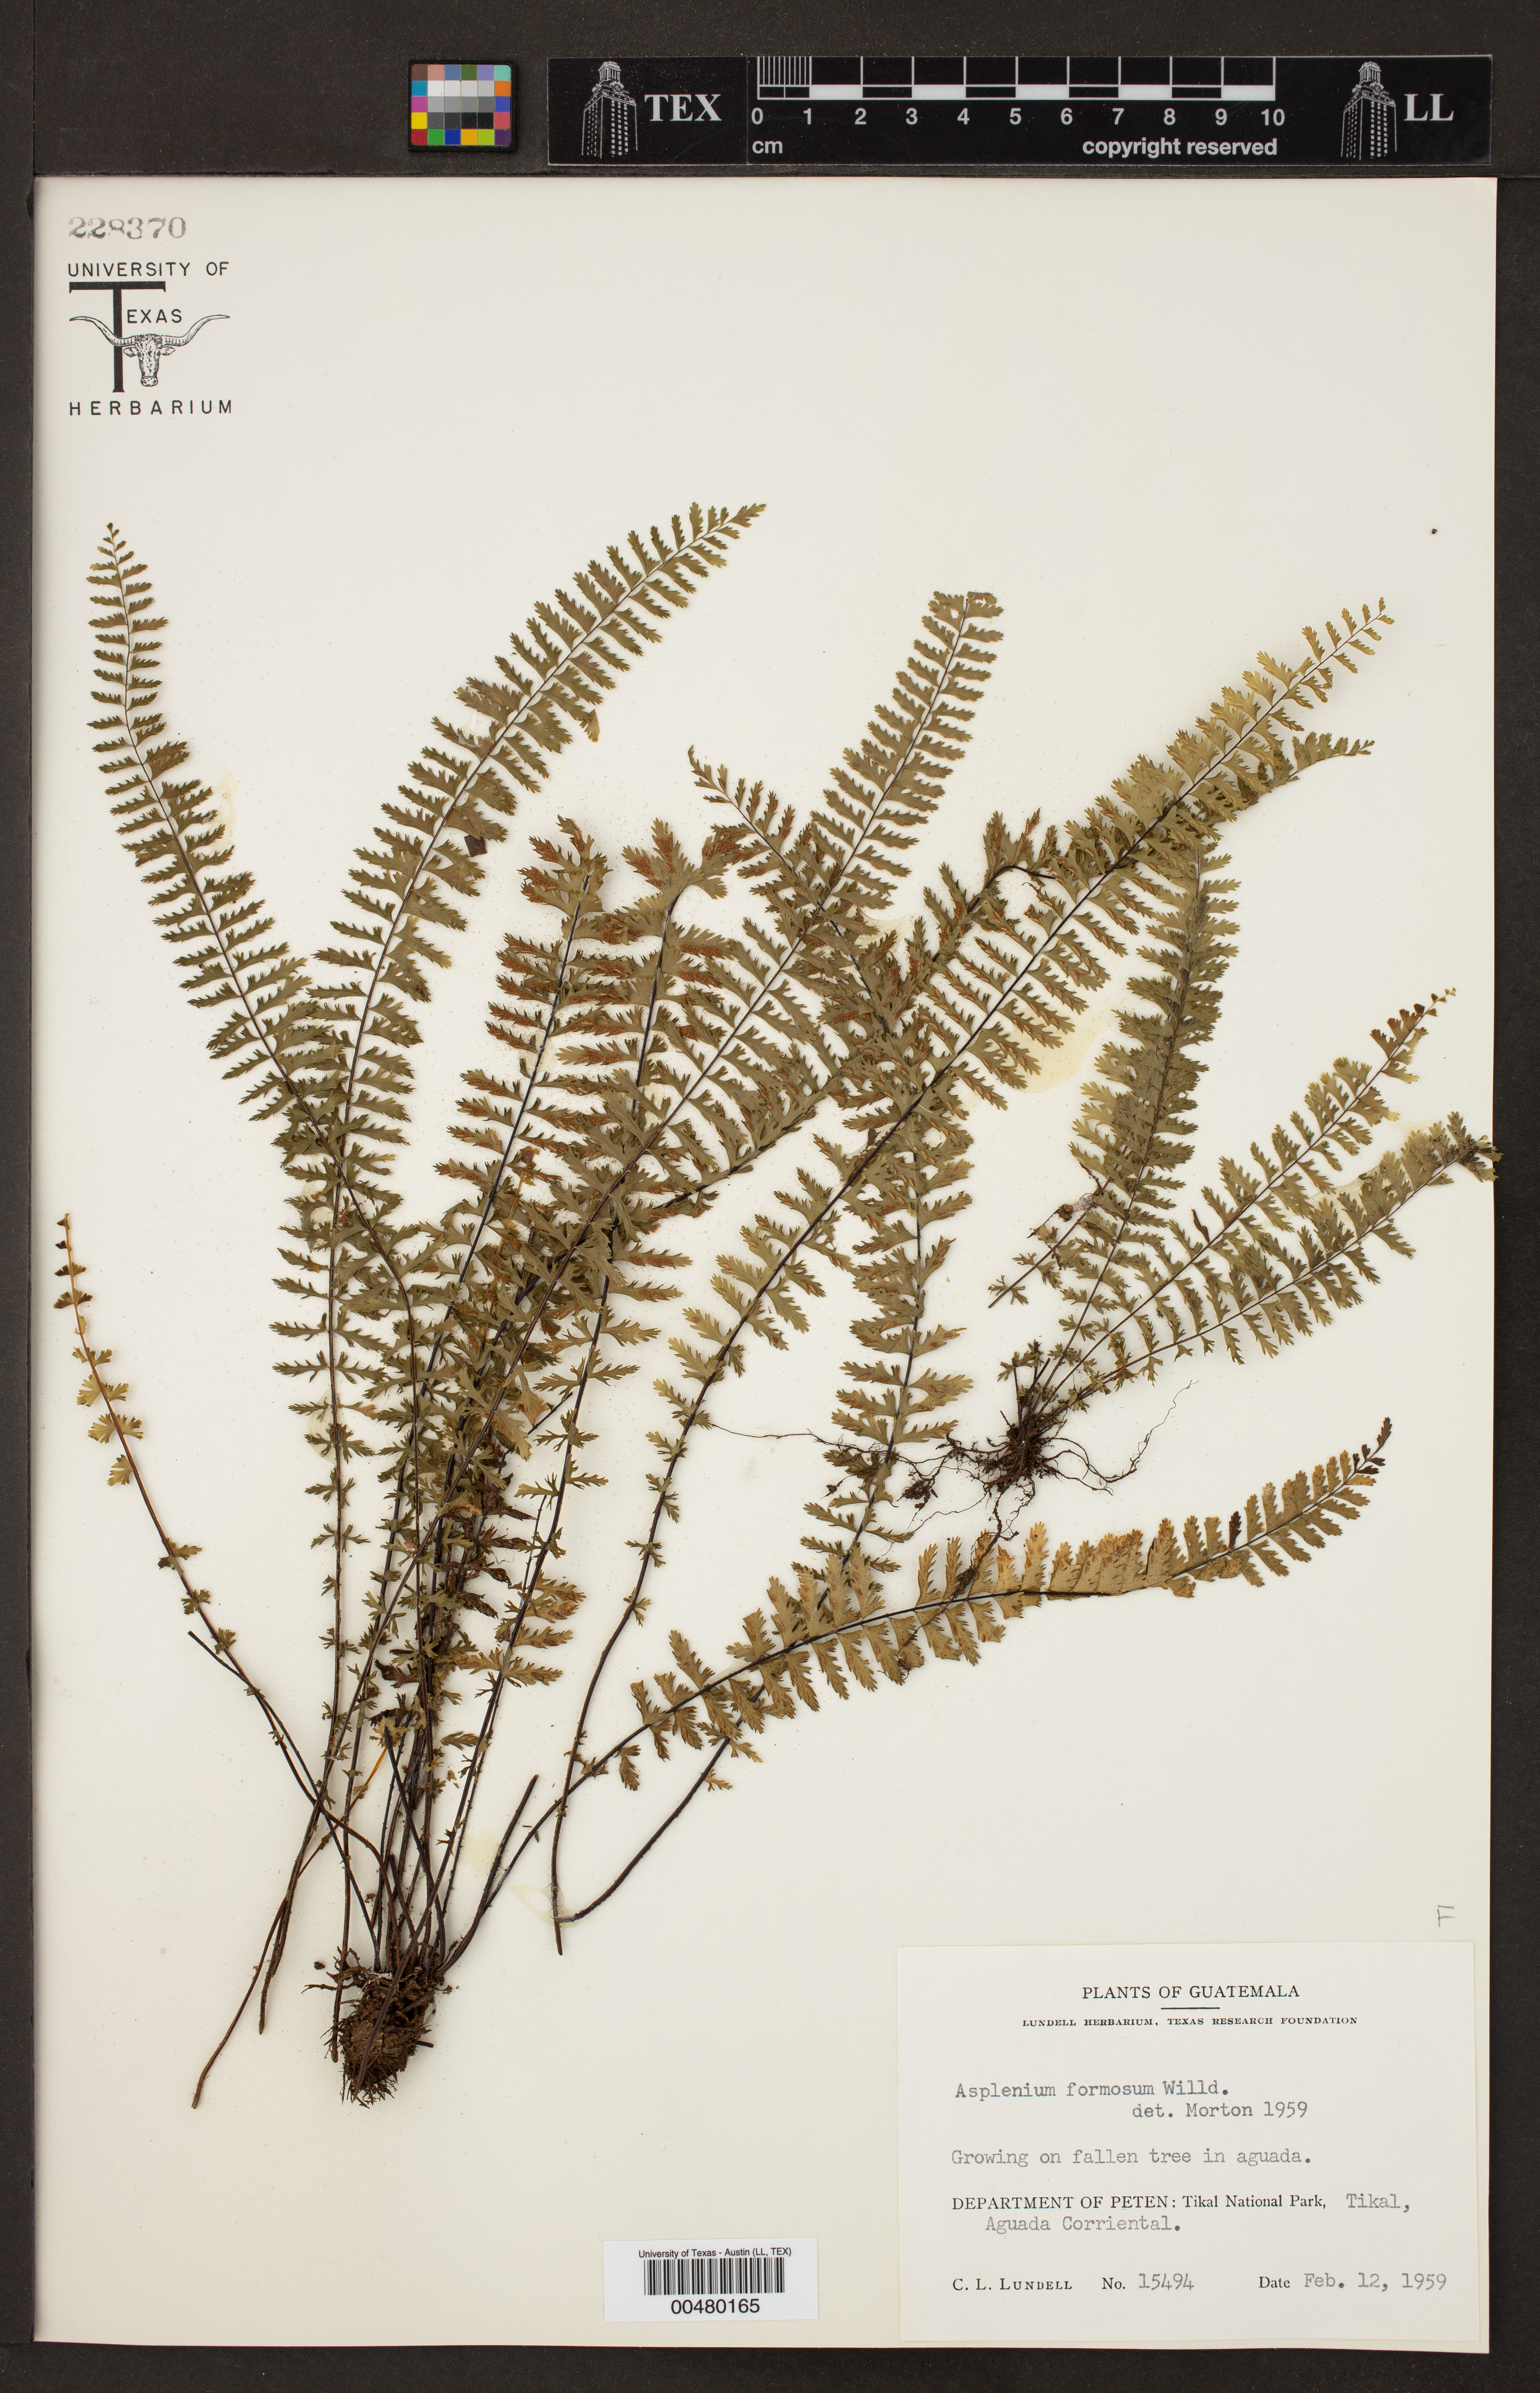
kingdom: Plantae
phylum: Tracheophyta
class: Polypodiopsida
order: Polypodiales
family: Aspleniaceae
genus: Asplenium
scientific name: Asplenium formosum
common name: Showy spleenwort
